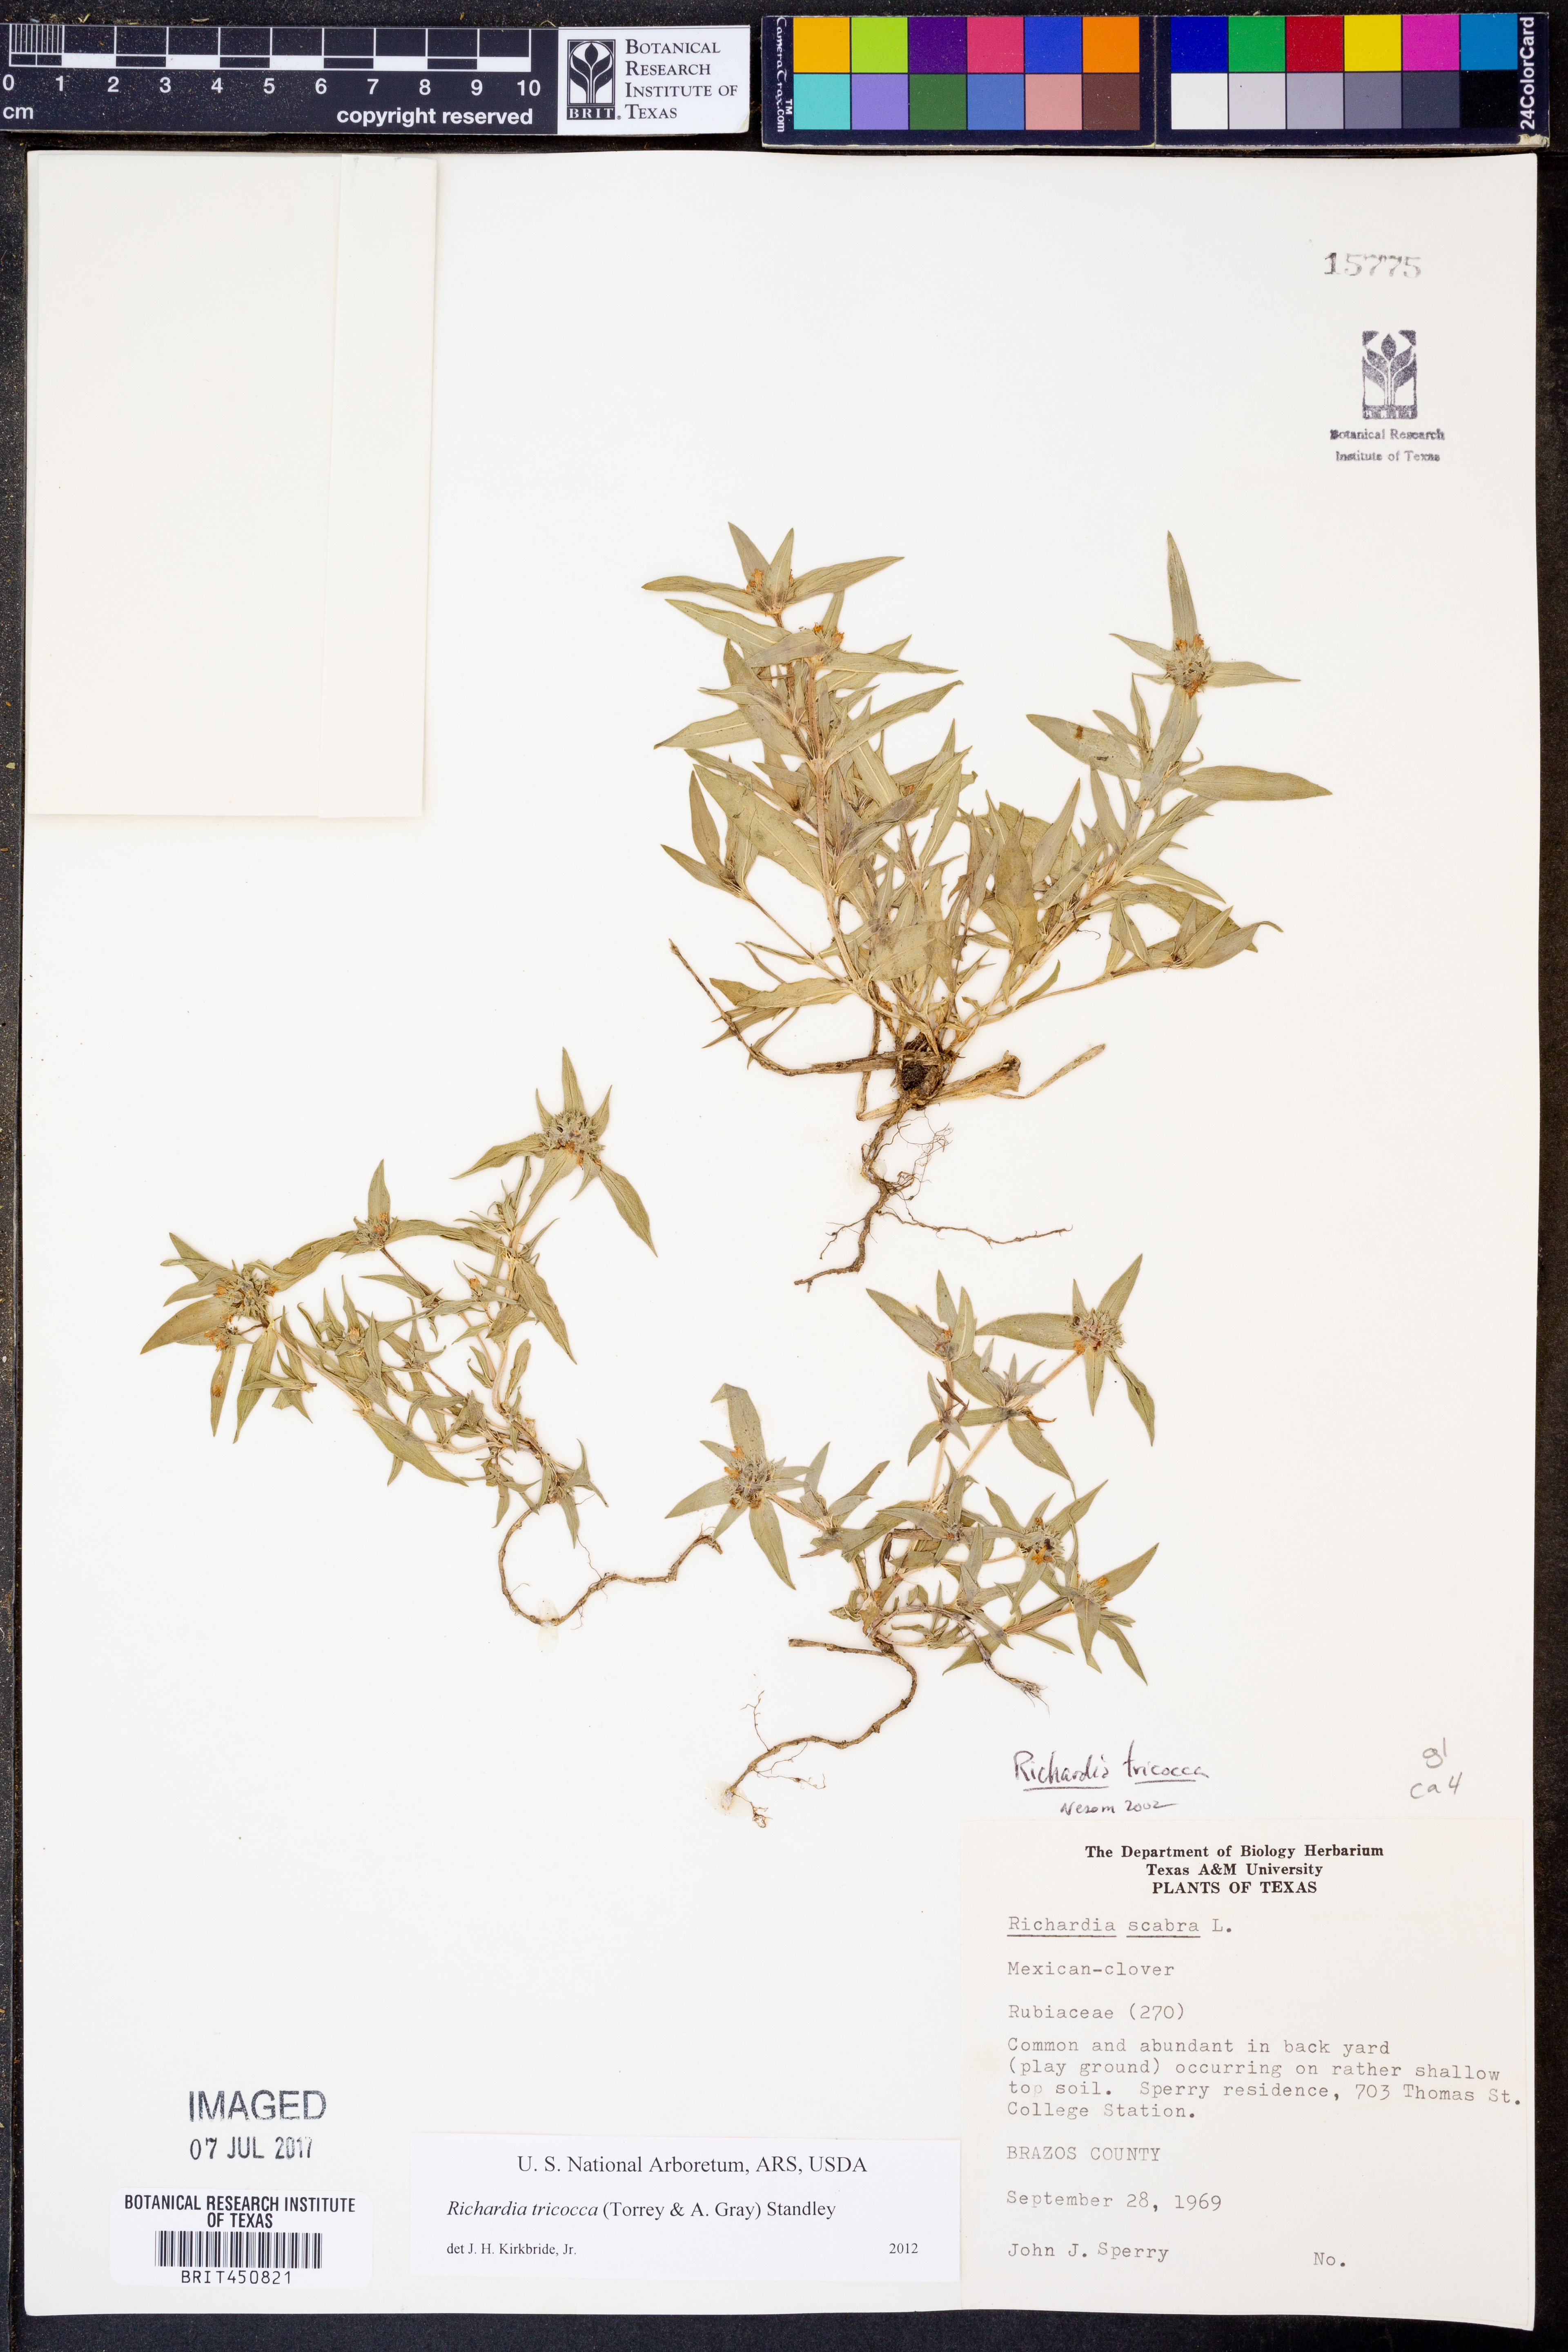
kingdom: Plantae
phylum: Tracheophyta
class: Magnoliopsida
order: Gentianales
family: Rubiaceae
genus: Richardia
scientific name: Richardia tricocca
